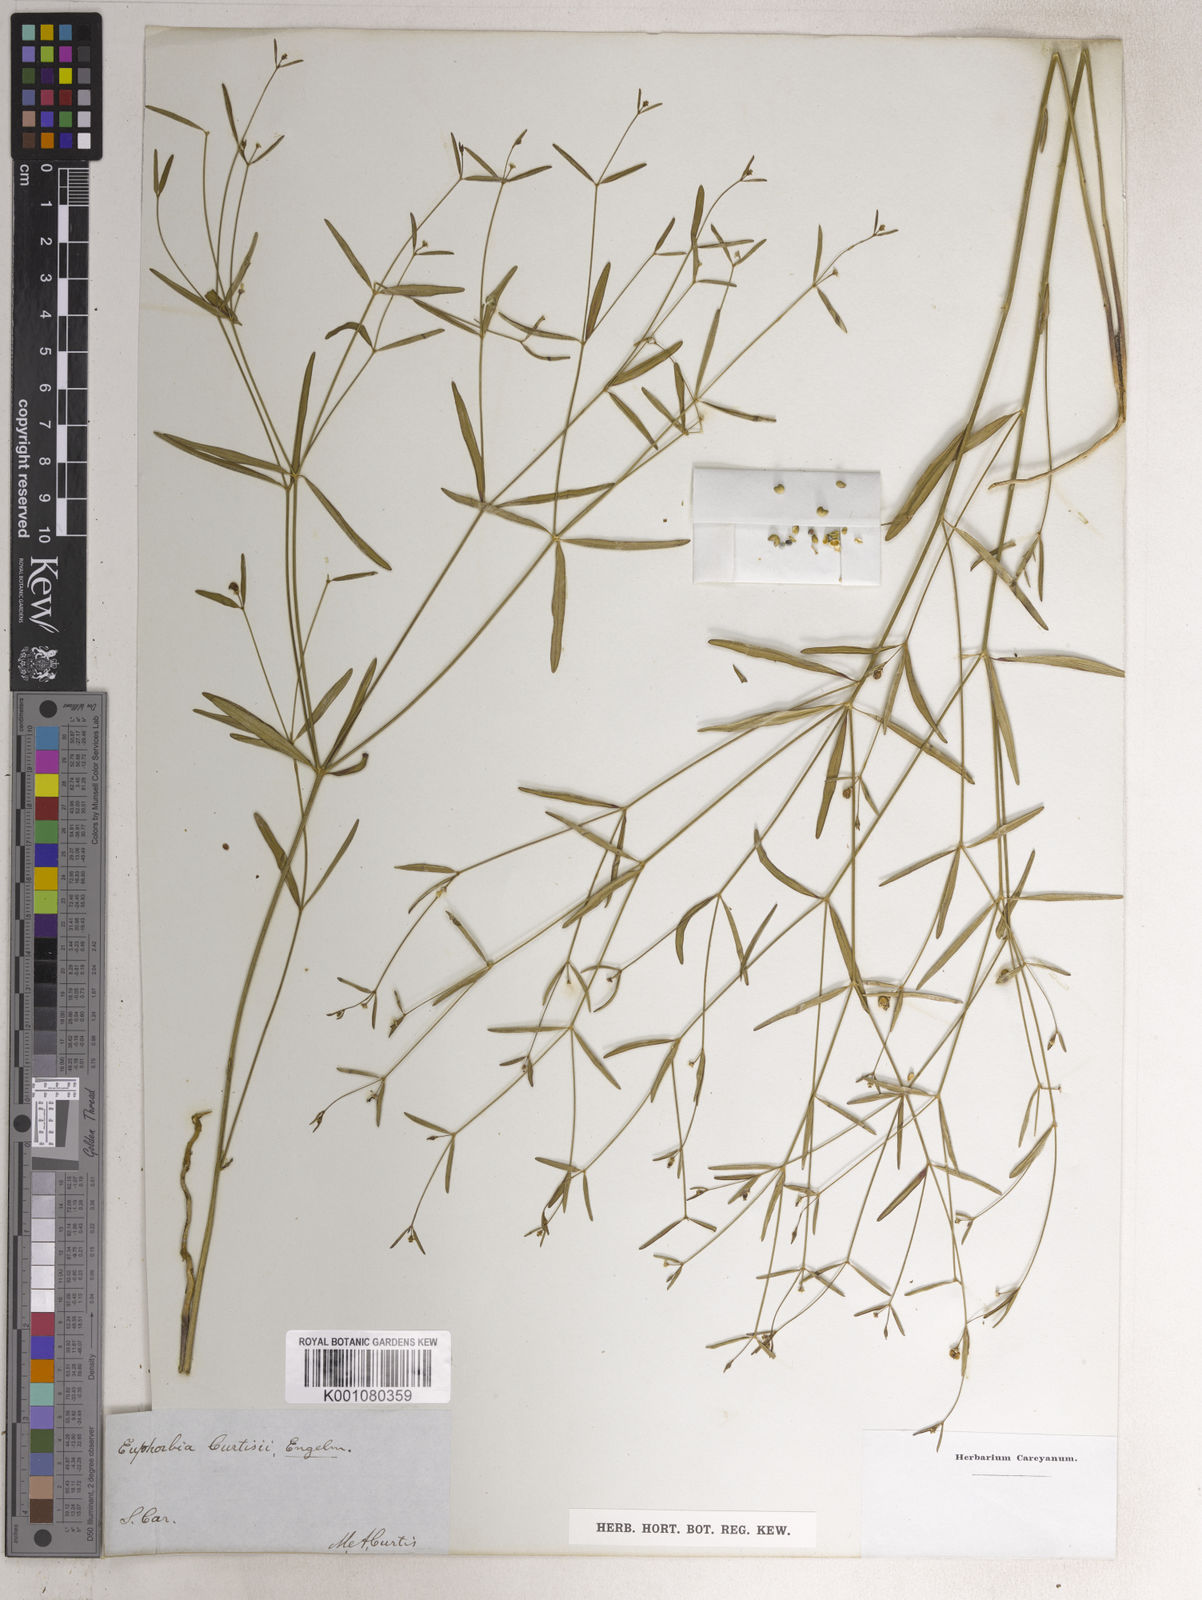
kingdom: Plantae
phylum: Tracheophyta
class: Magnoliopsida
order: Malpighiales
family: Euphorbiaceae
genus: Euphorbia
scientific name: Euphorbia curtisii
